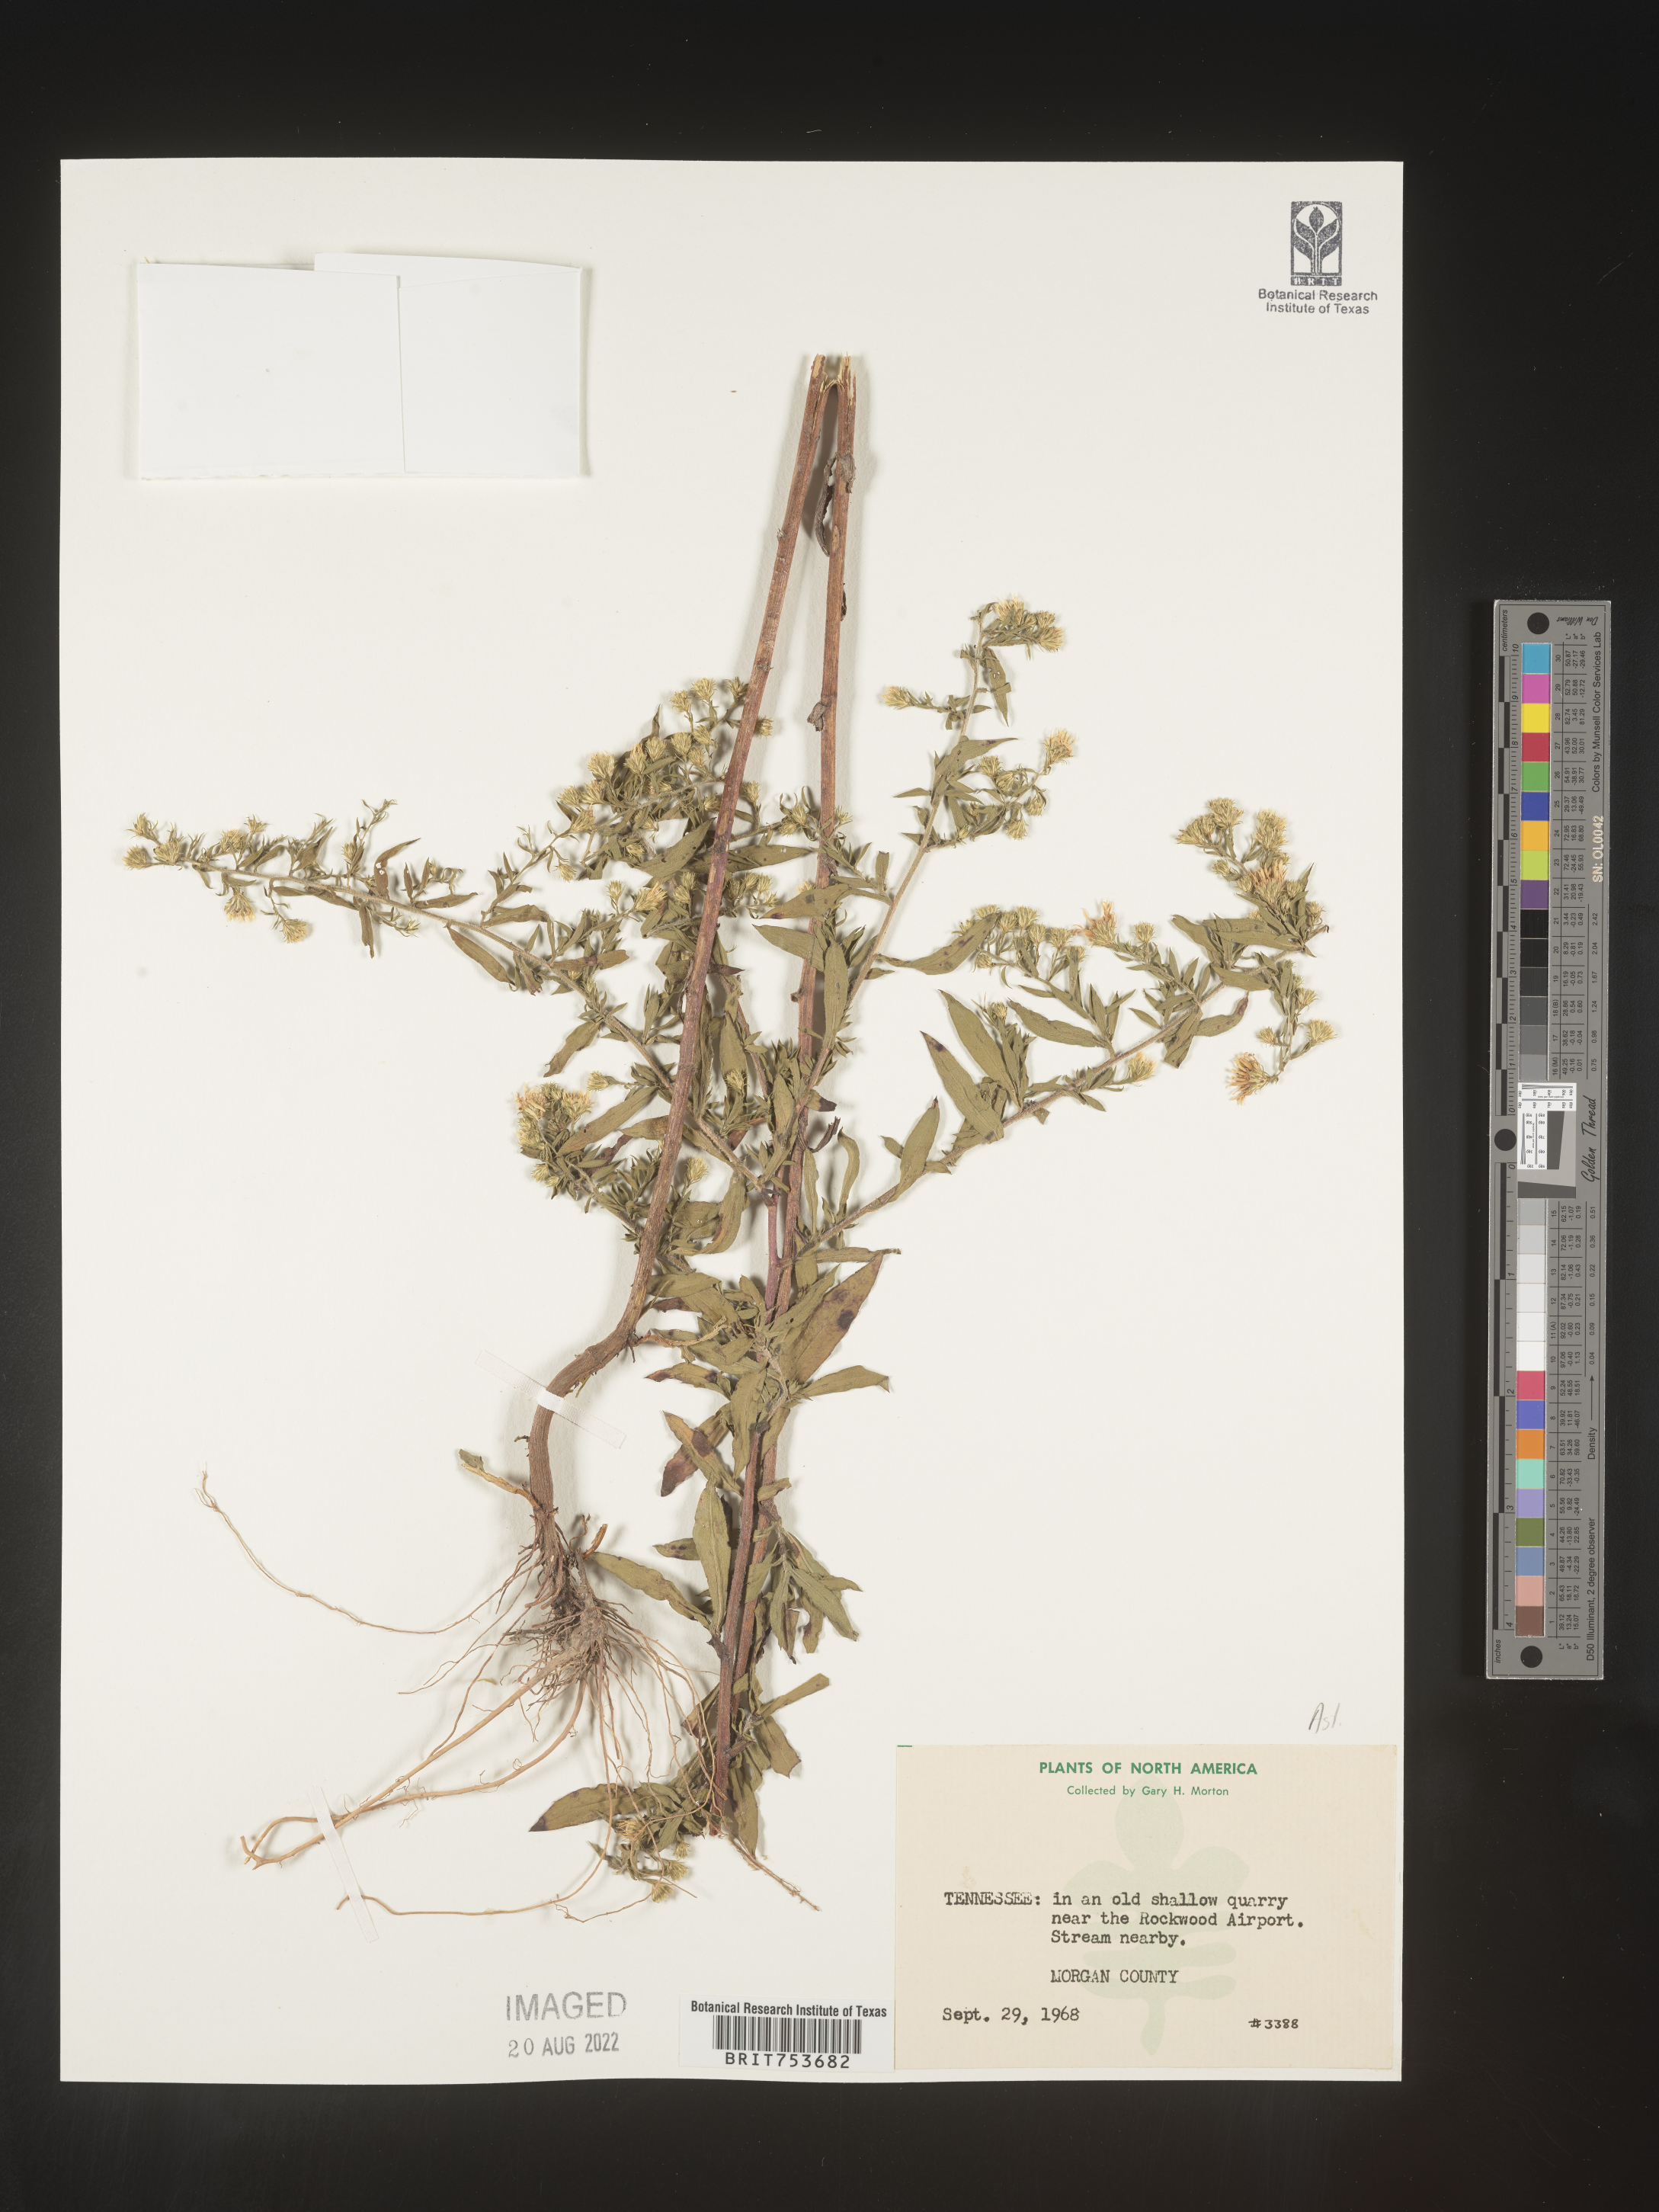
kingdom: Plantae
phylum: Tracheophyta
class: Magnoliopsida
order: Asterales
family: Asteraceae
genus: Symphyotrichum
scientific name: Symphyotrichum pilosum
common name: Awl aster
